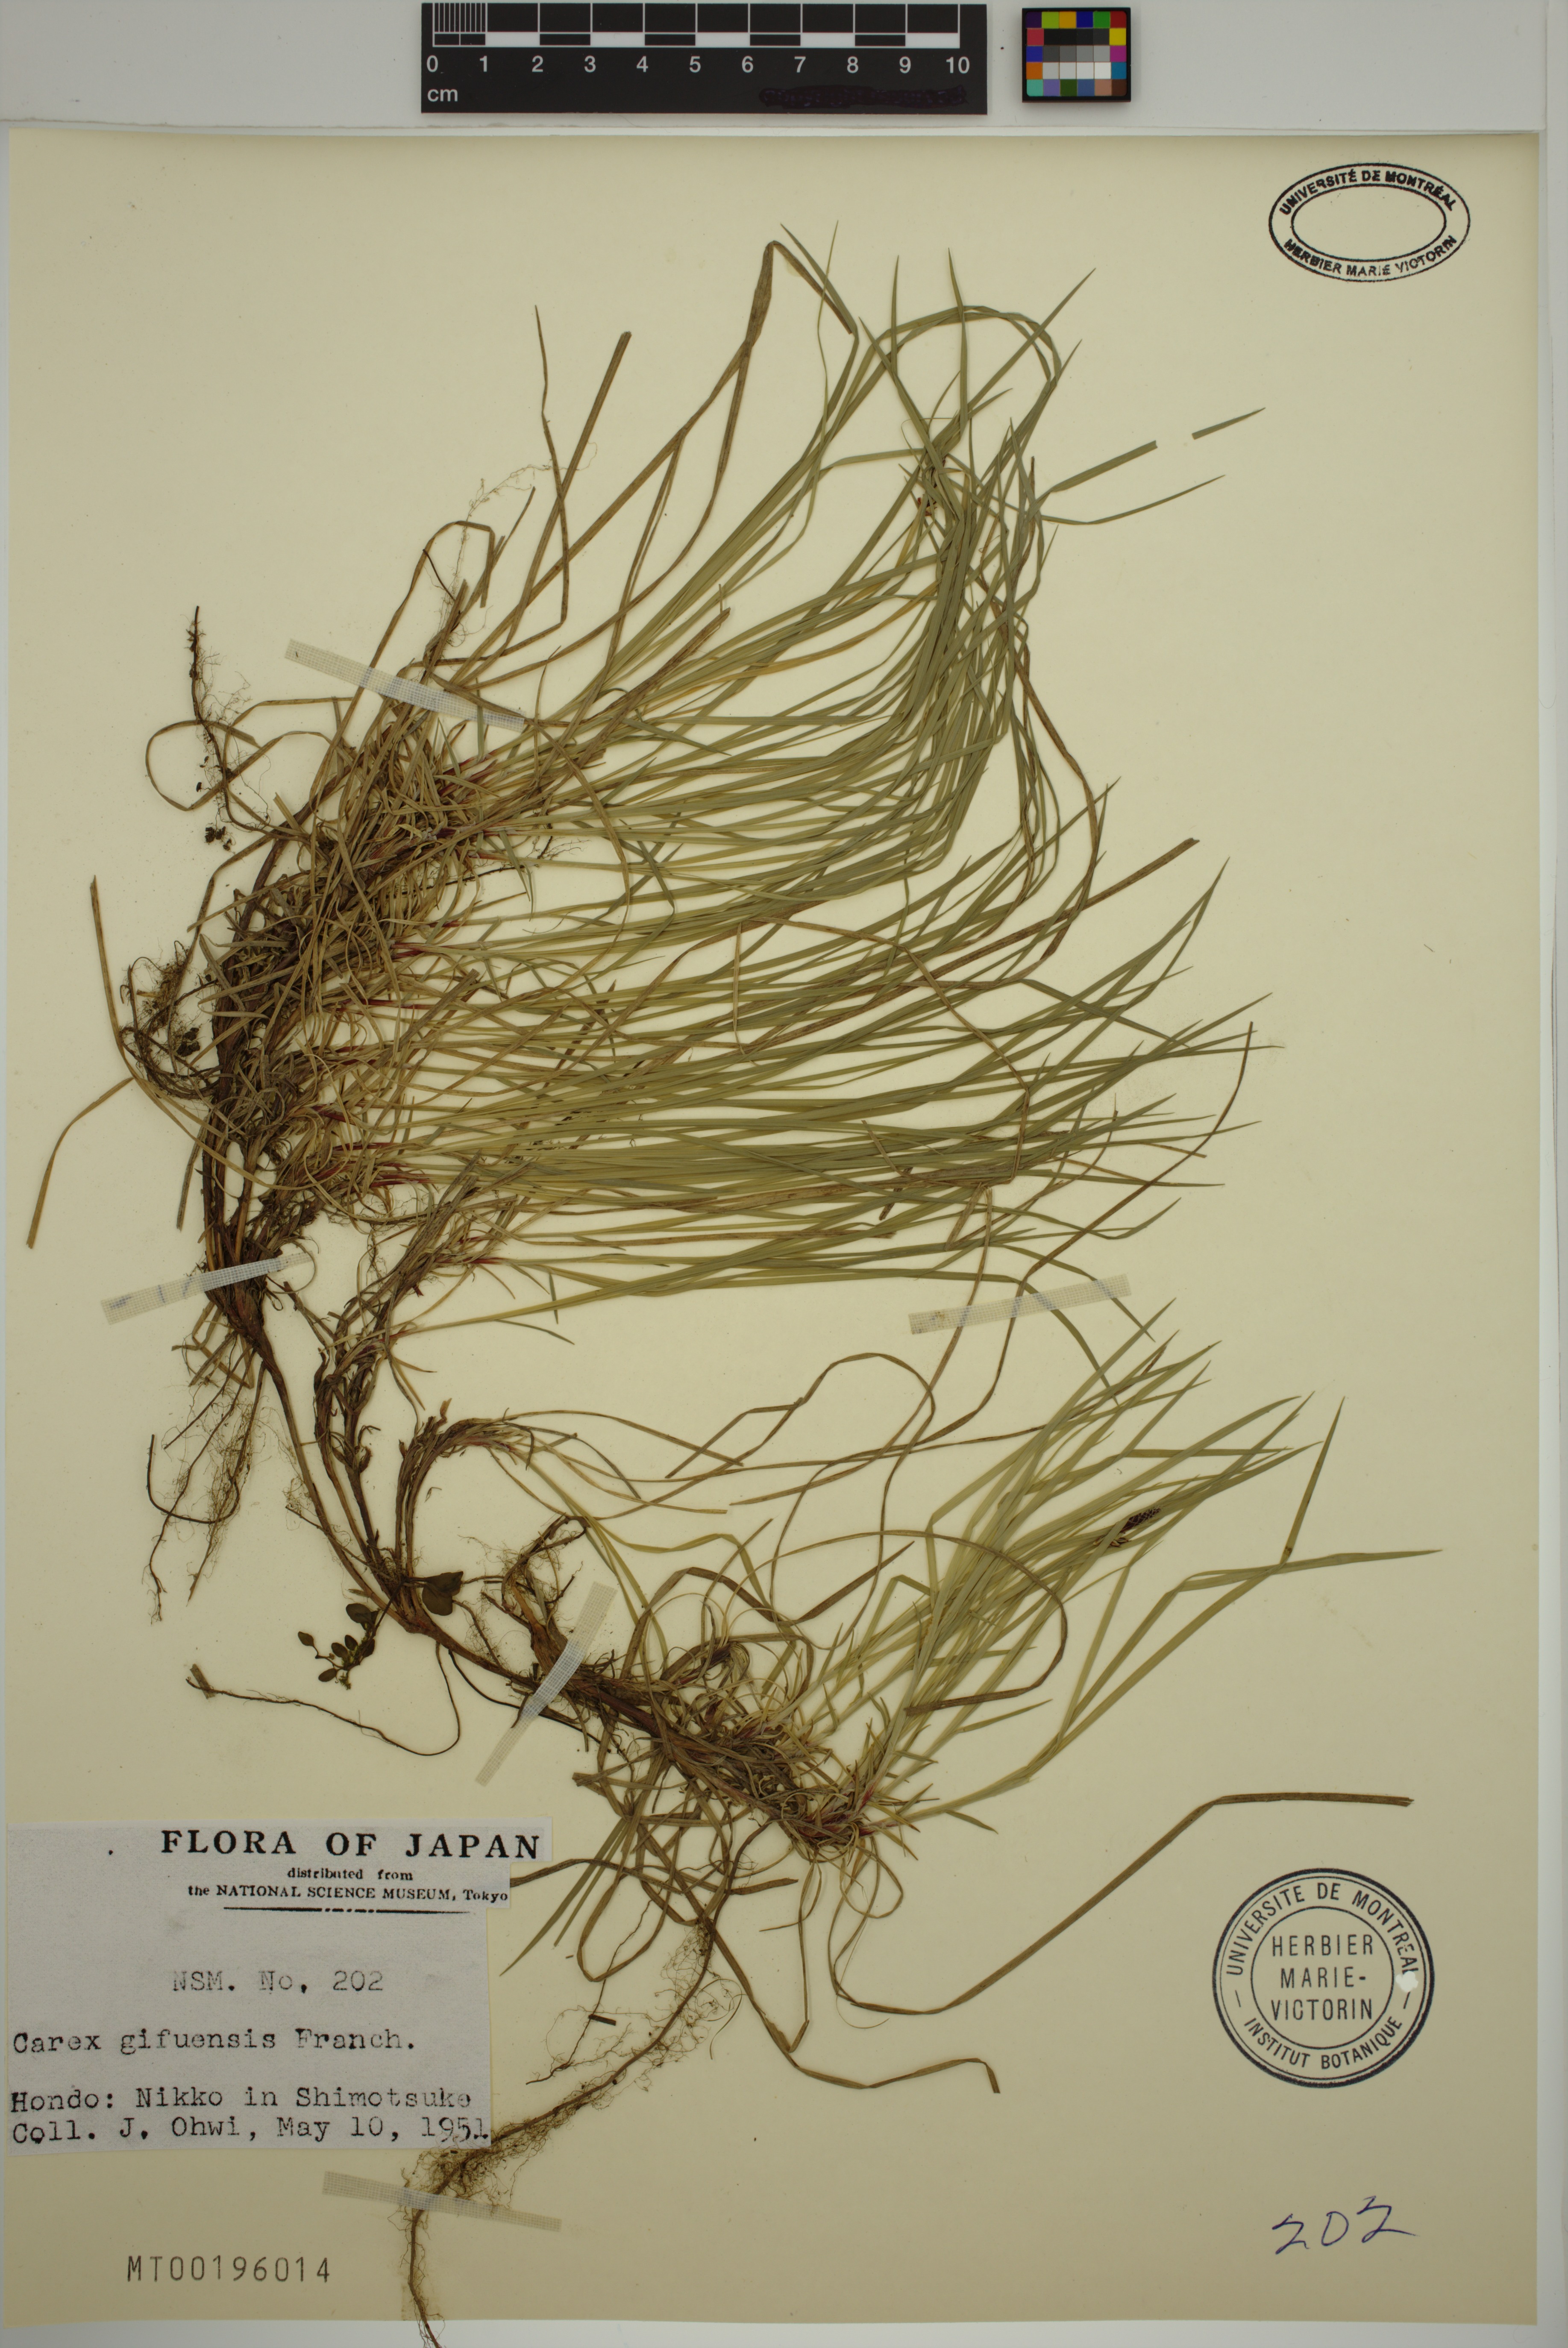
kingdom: Plantae
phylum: Tracheophyta
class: Liliopsida
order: Poales
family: Cyperaceae
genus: Carex
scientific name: Carex gifuensis
